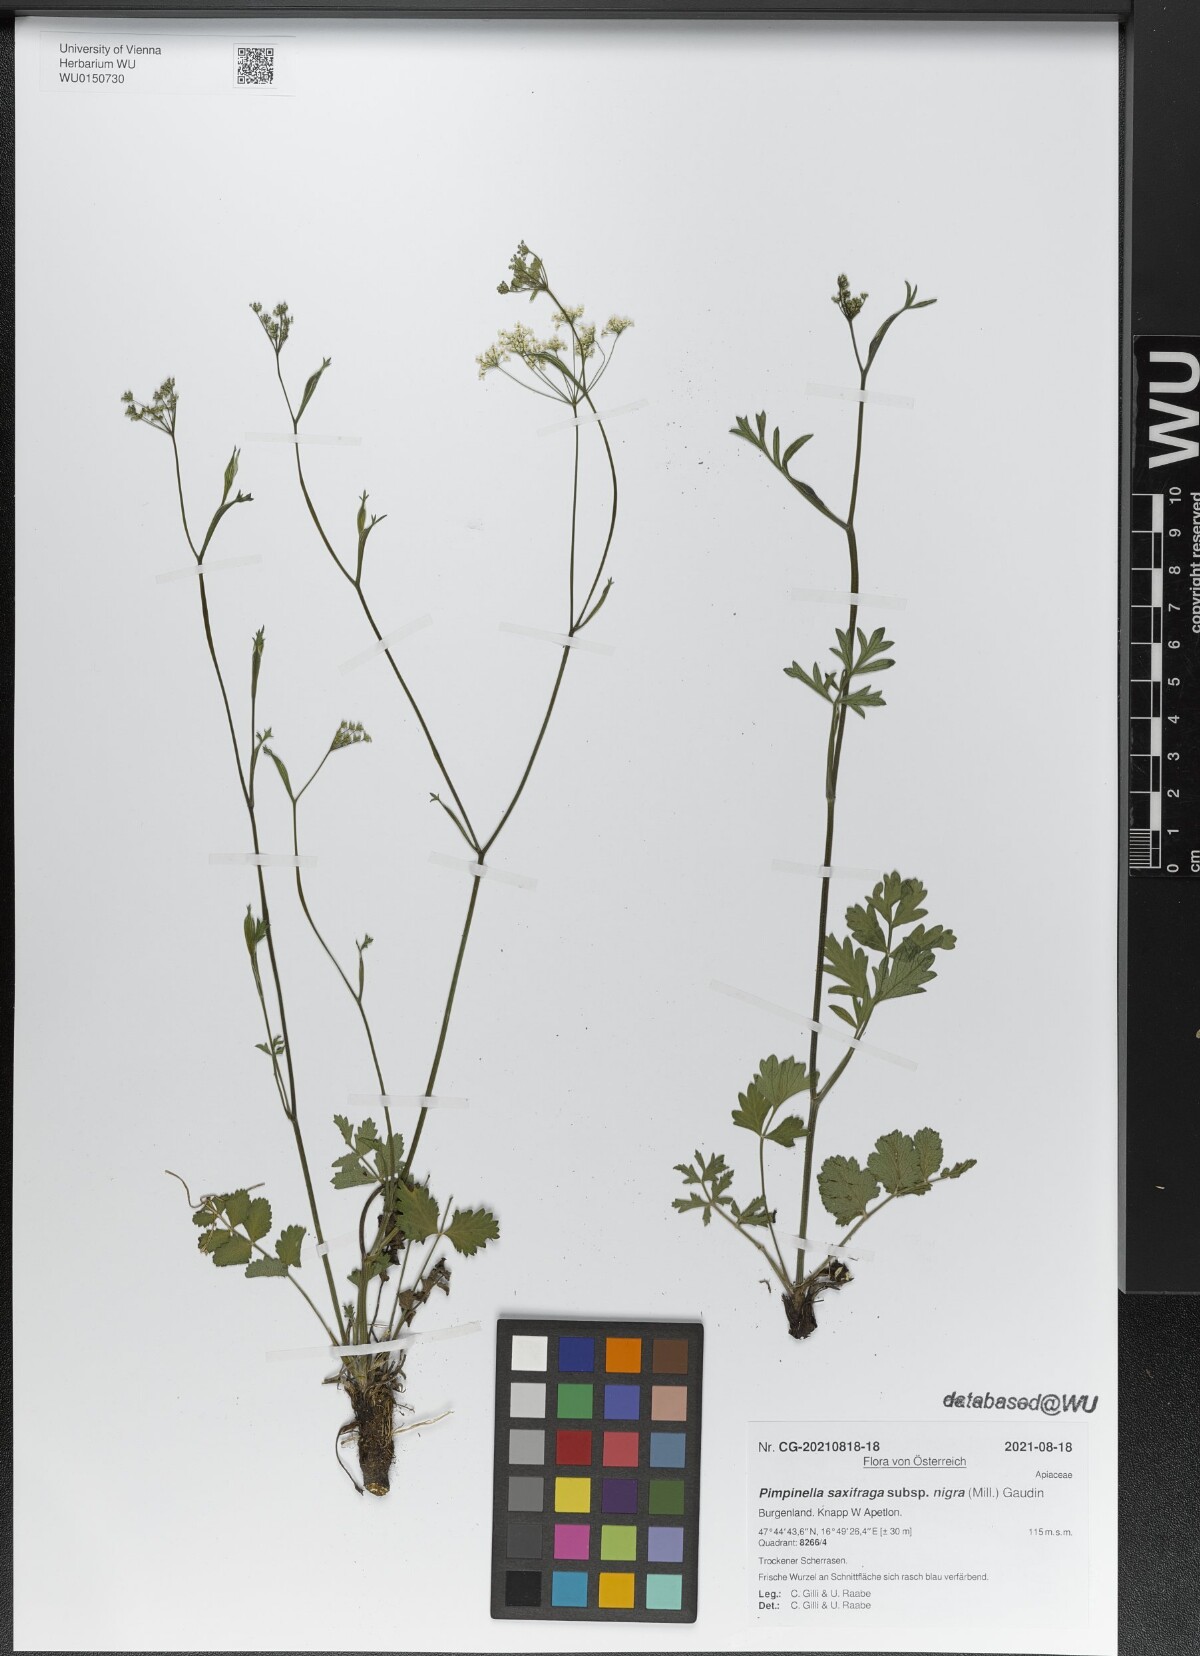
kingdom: Plantae
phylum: Tracheophyta
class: Magnoliopsida
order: Apiales
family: Apiaceae
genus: Pimpinella
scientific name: Pimpinella nigra
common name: Black pimpinella
